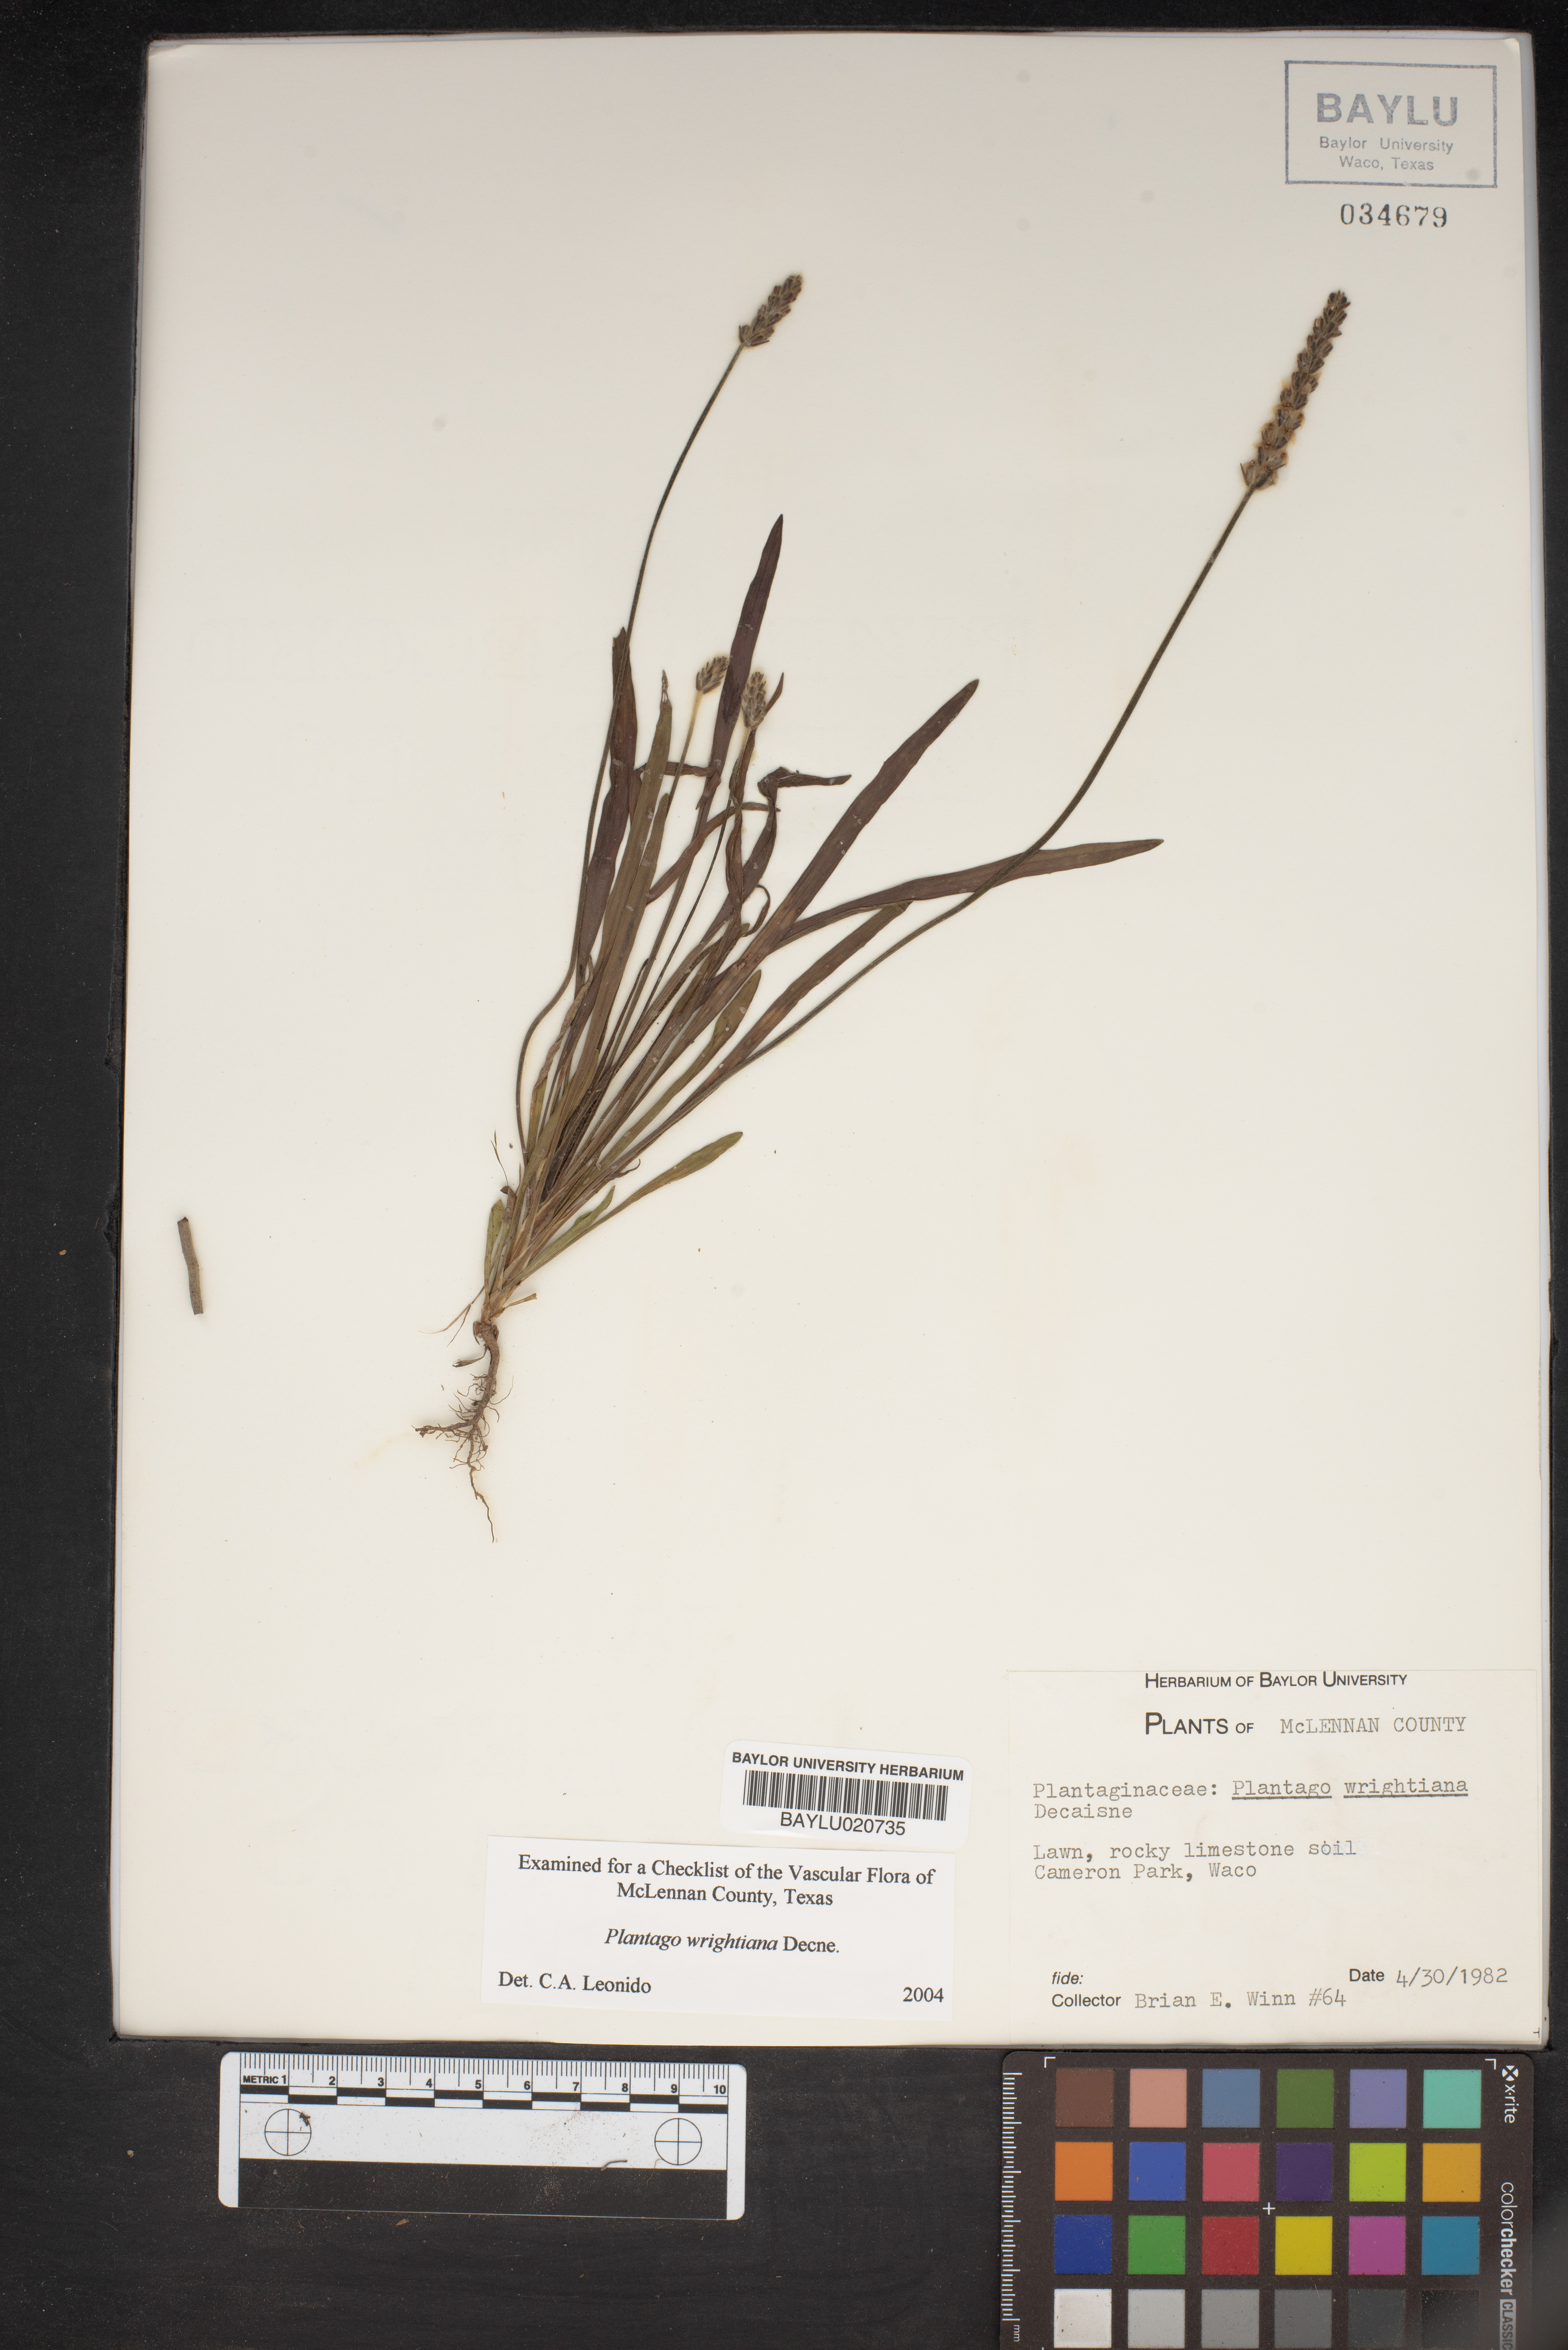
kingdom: Plantae
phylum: Tracheophyta
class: Magnoliopsida
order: Lamiales
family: Plantaginaceae
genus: Plantago
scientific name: Plantago wrightiana
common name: Wright's plantain
